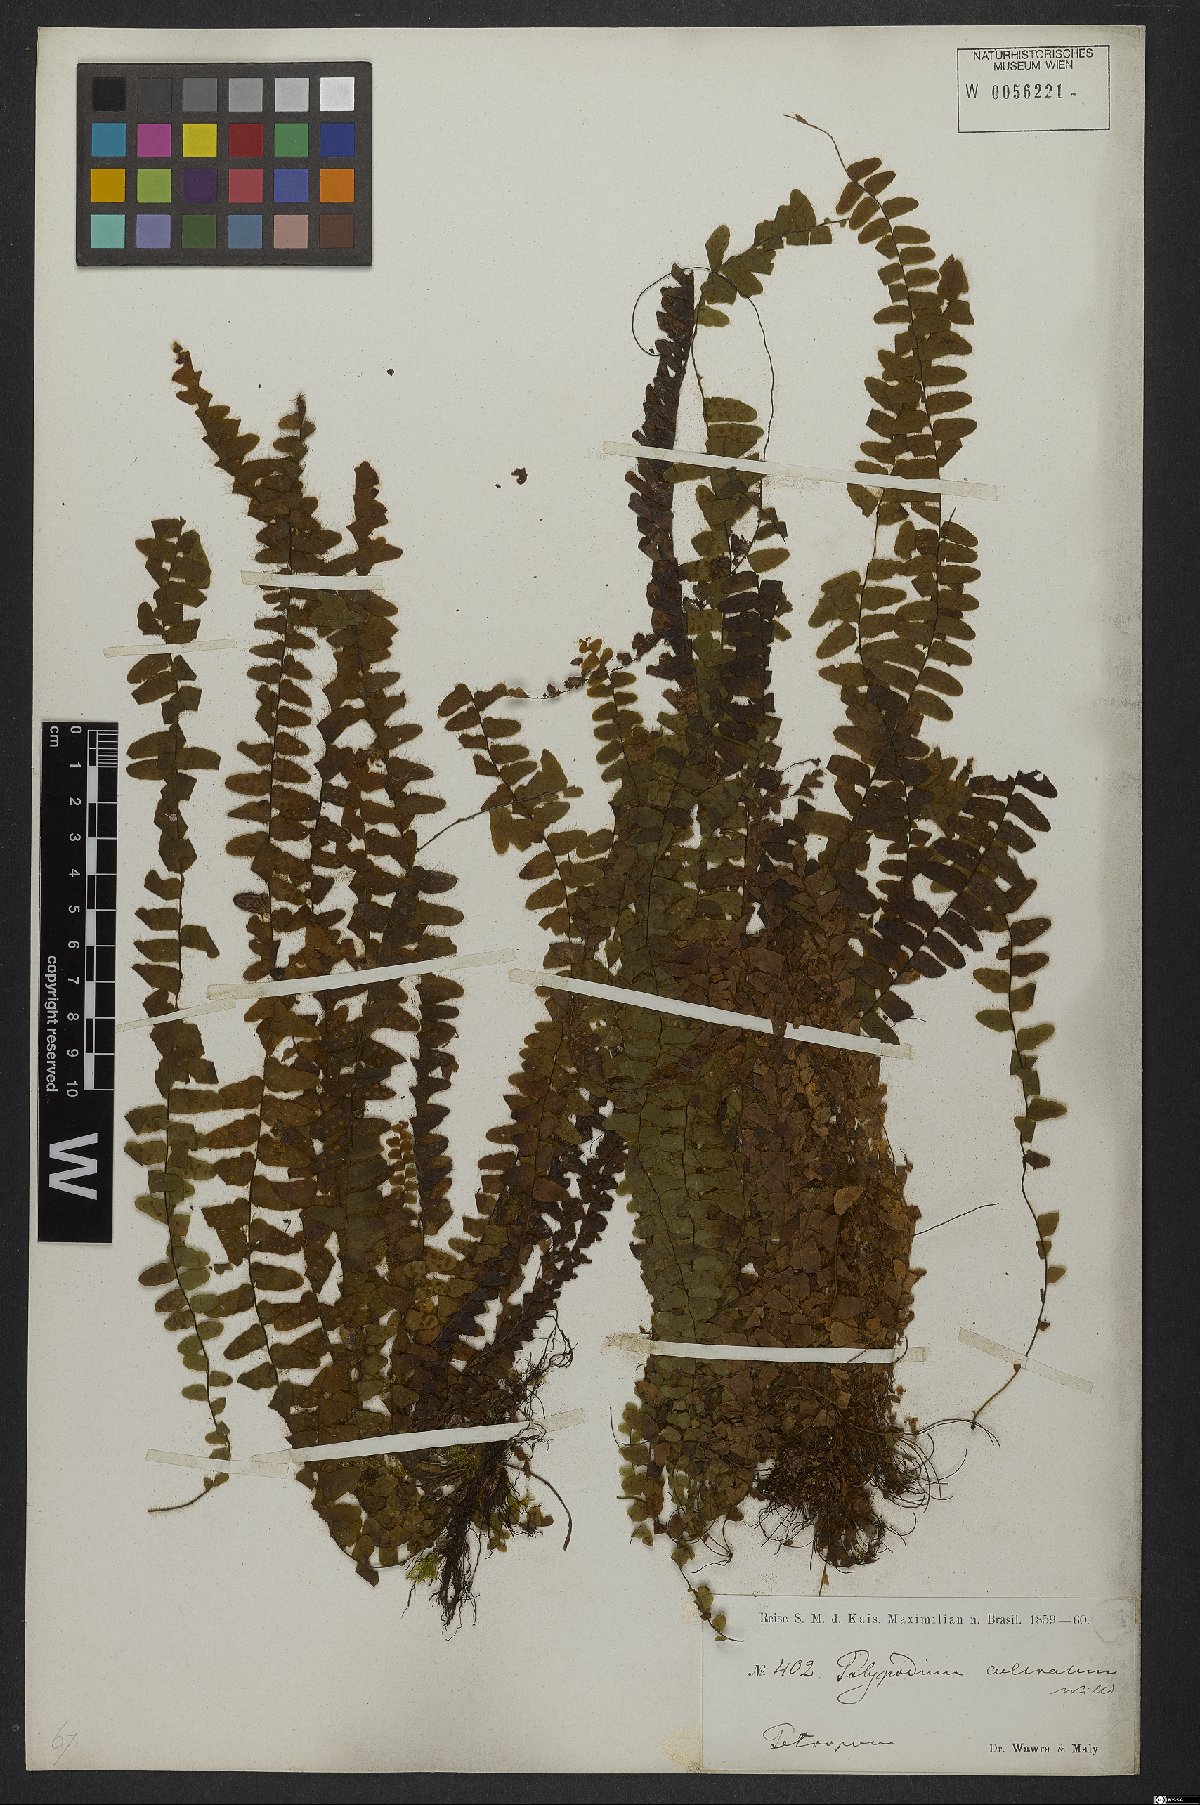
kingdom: Plantae
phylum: Tracheophyta
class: Polypodiopsida
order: Polypodiales
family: Polypodiaceae
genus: Alansmia
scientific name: Alansmia cultrata
